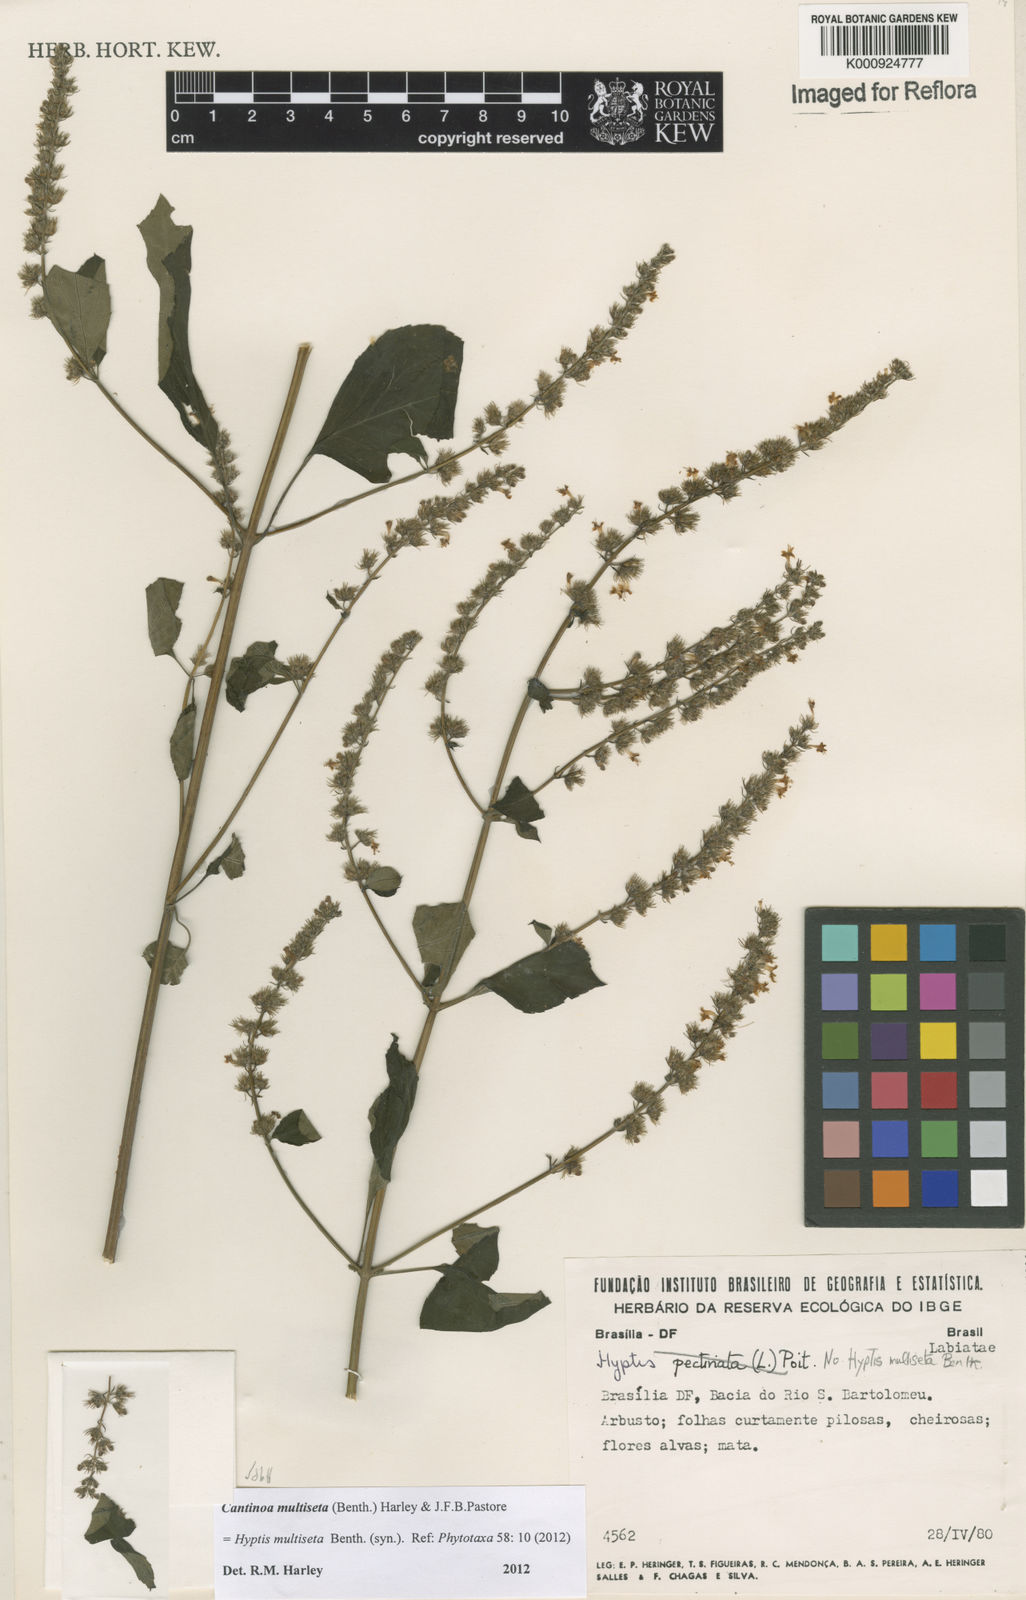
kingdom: Plantae
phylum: Tracheophyta
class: Magnoliopsida
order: Lamiales
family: Lamiaceae
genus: Cantinoa
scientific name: Cantinoa multiseta
